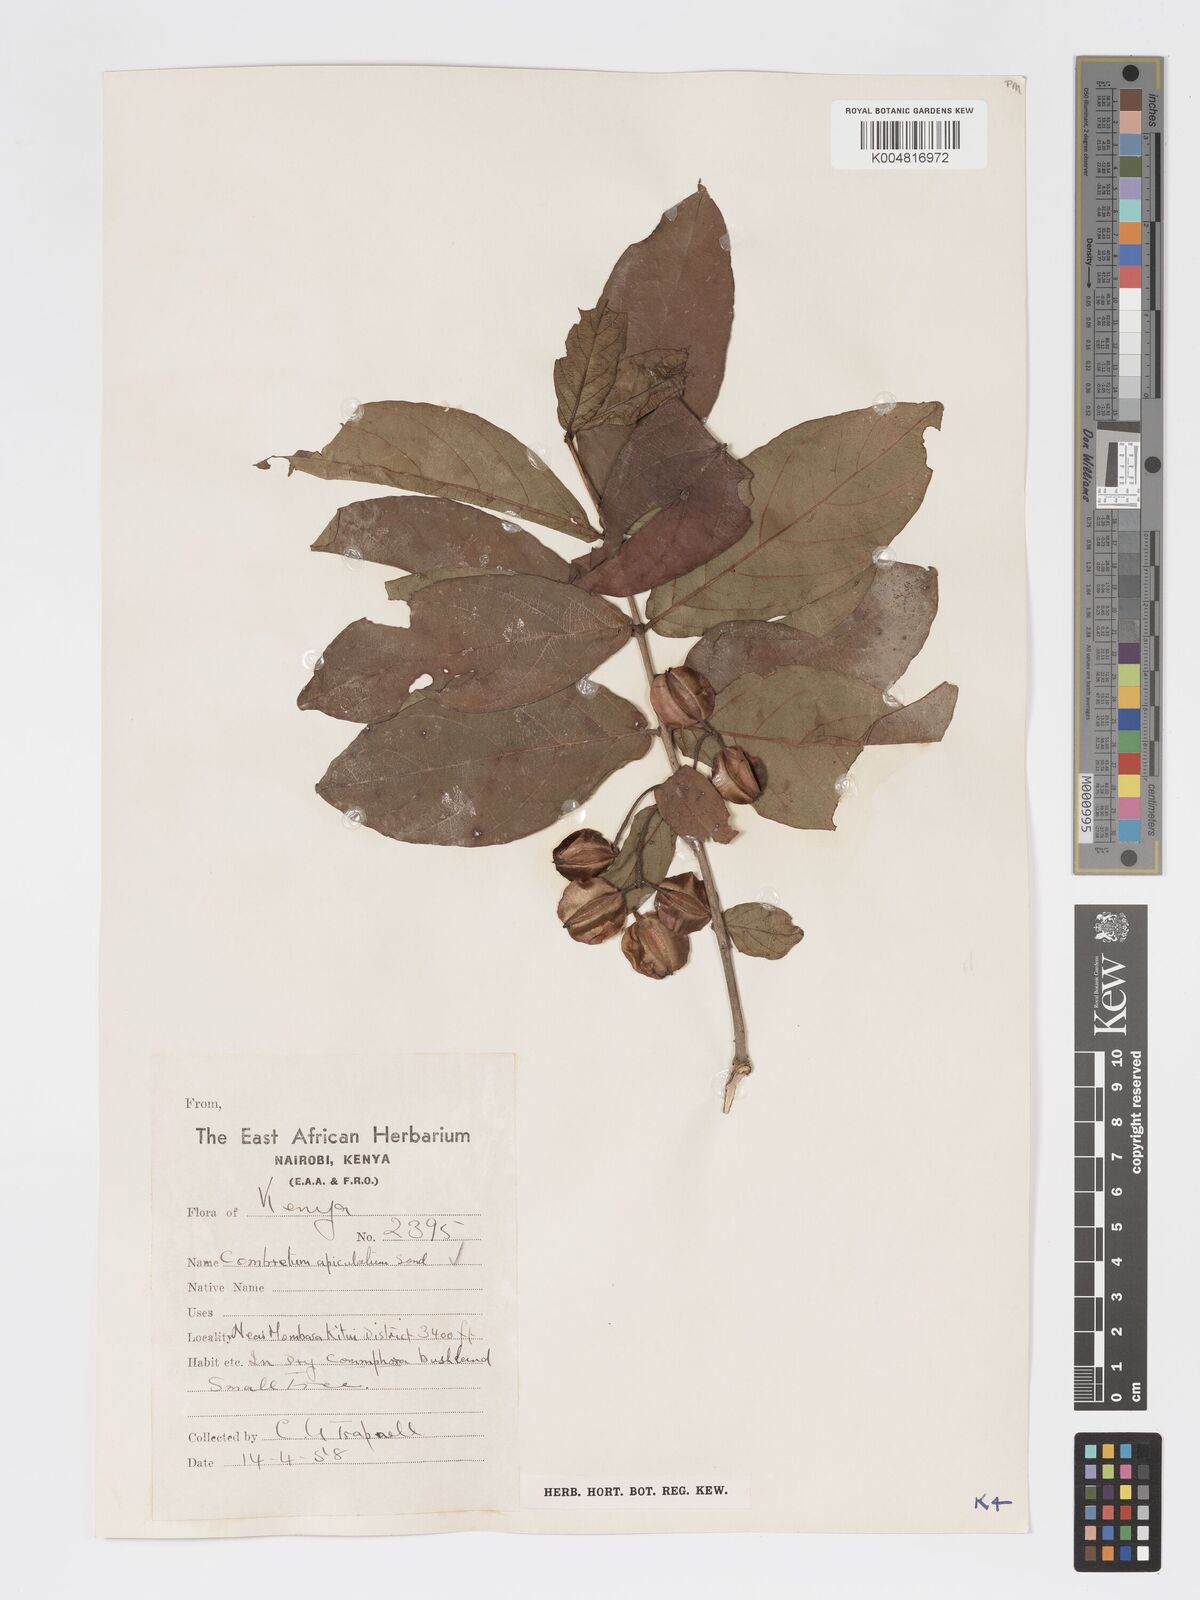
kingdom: Plantae
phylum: Tracheophyta
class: Magnoliopsida
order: Myrtales
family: Combretaceae
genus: Combretum
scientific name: Combretum apiculatum
